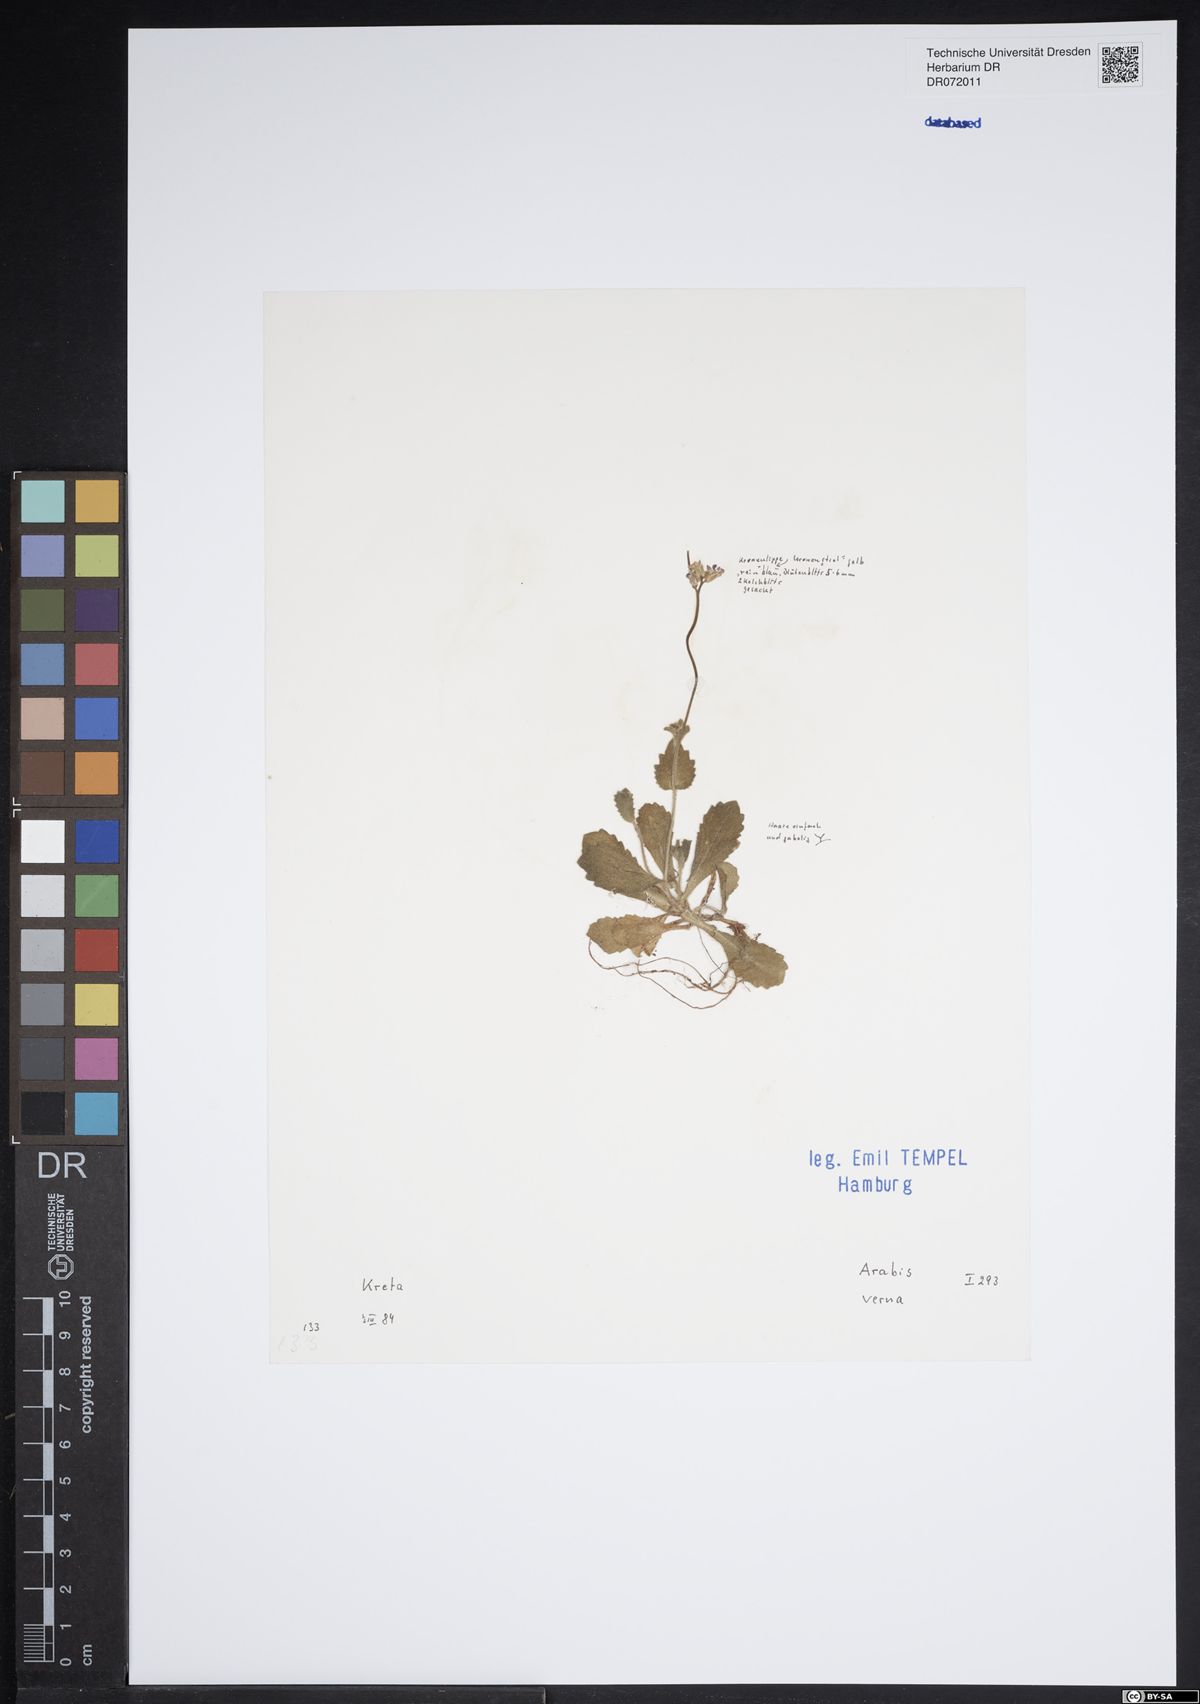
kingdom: Plantae
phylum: Tracheophyta
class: Magnoliopsida
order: Brassicales
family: Brassicaceae
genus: Arabis
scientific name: Arabis verna
